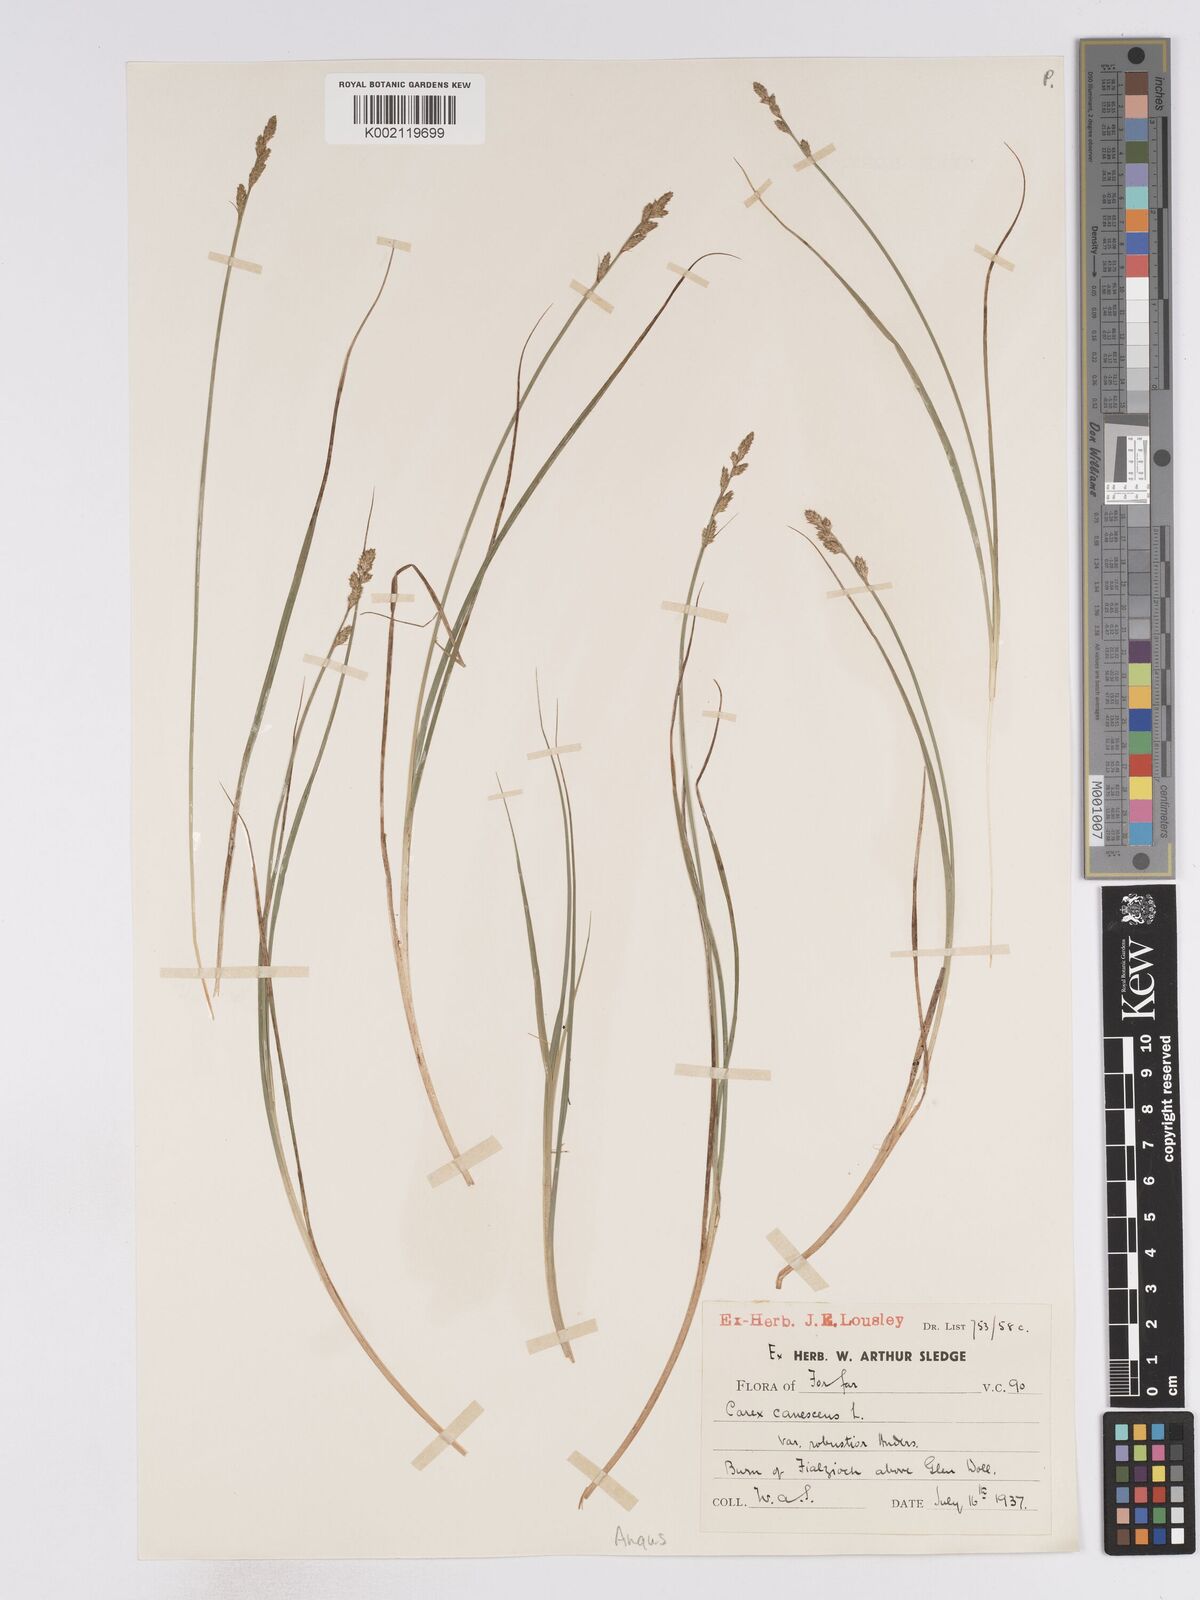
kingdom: Plantae
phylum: Tracheophyta
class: Liliopsida
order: Poales
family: Cyperaceae
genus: Carex
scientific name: Carex curta
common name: White sedge
